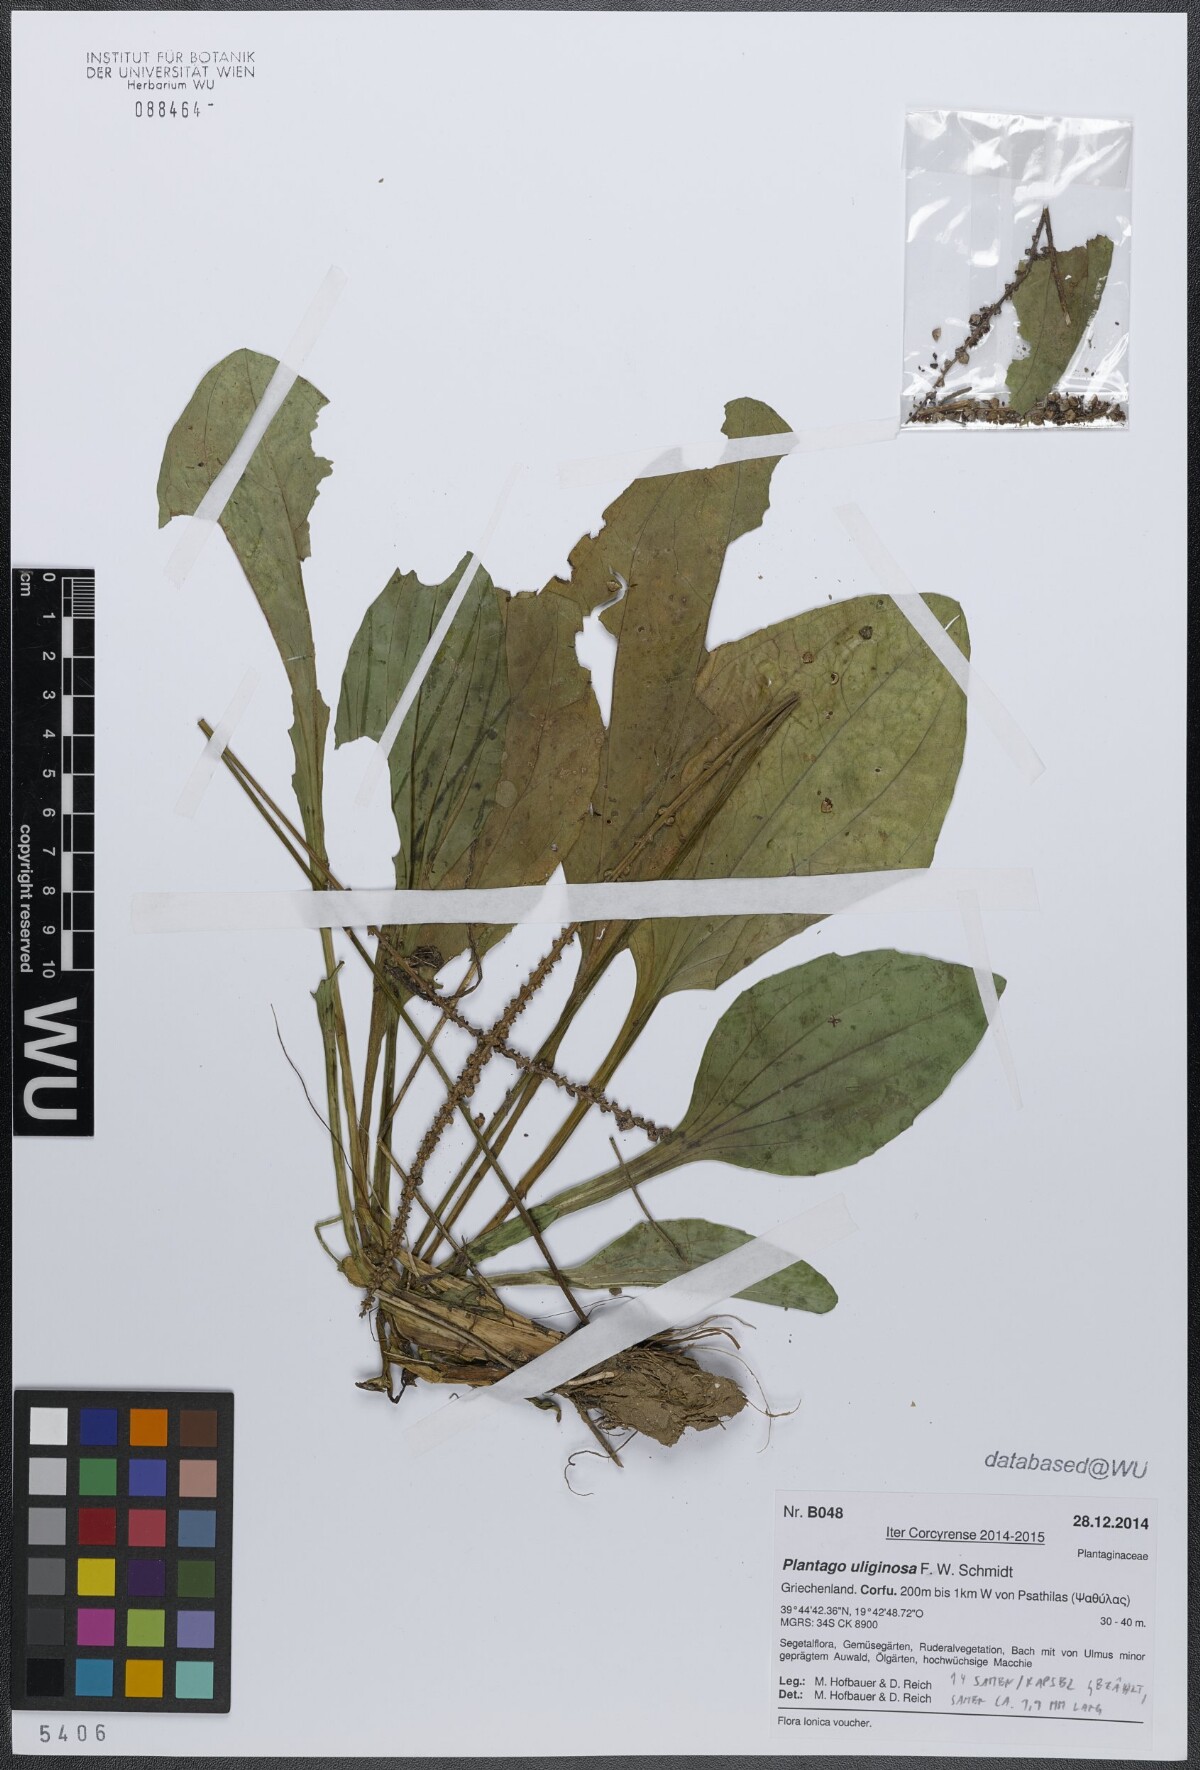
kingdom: Plantae
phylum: Tracheophyta
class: Magnoliopsida
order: Lamiales
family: Plantaginaceae
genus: Plantago
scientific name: Plantago uliginosa
